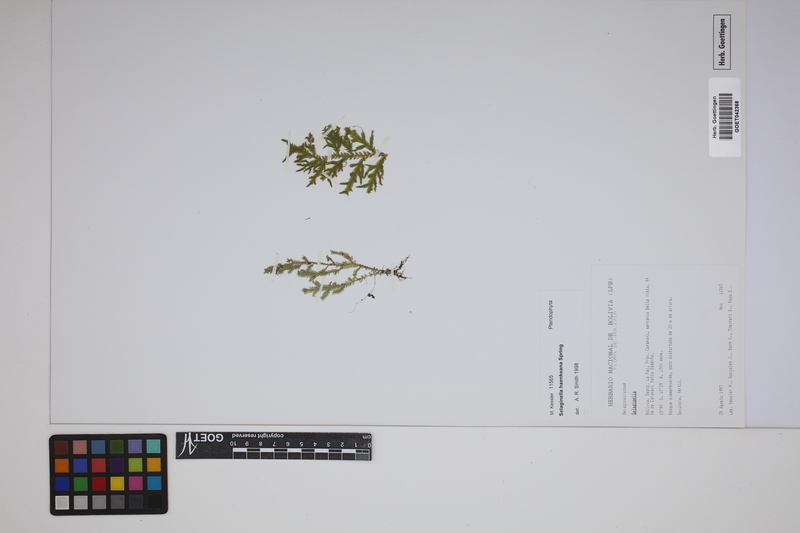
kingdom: Plantae
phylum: Tracheophyta
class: Lycopodiopsida
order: Selaginellales
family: Selaginellaceae
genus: Selaginella
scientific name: Selaginella haenkeana
